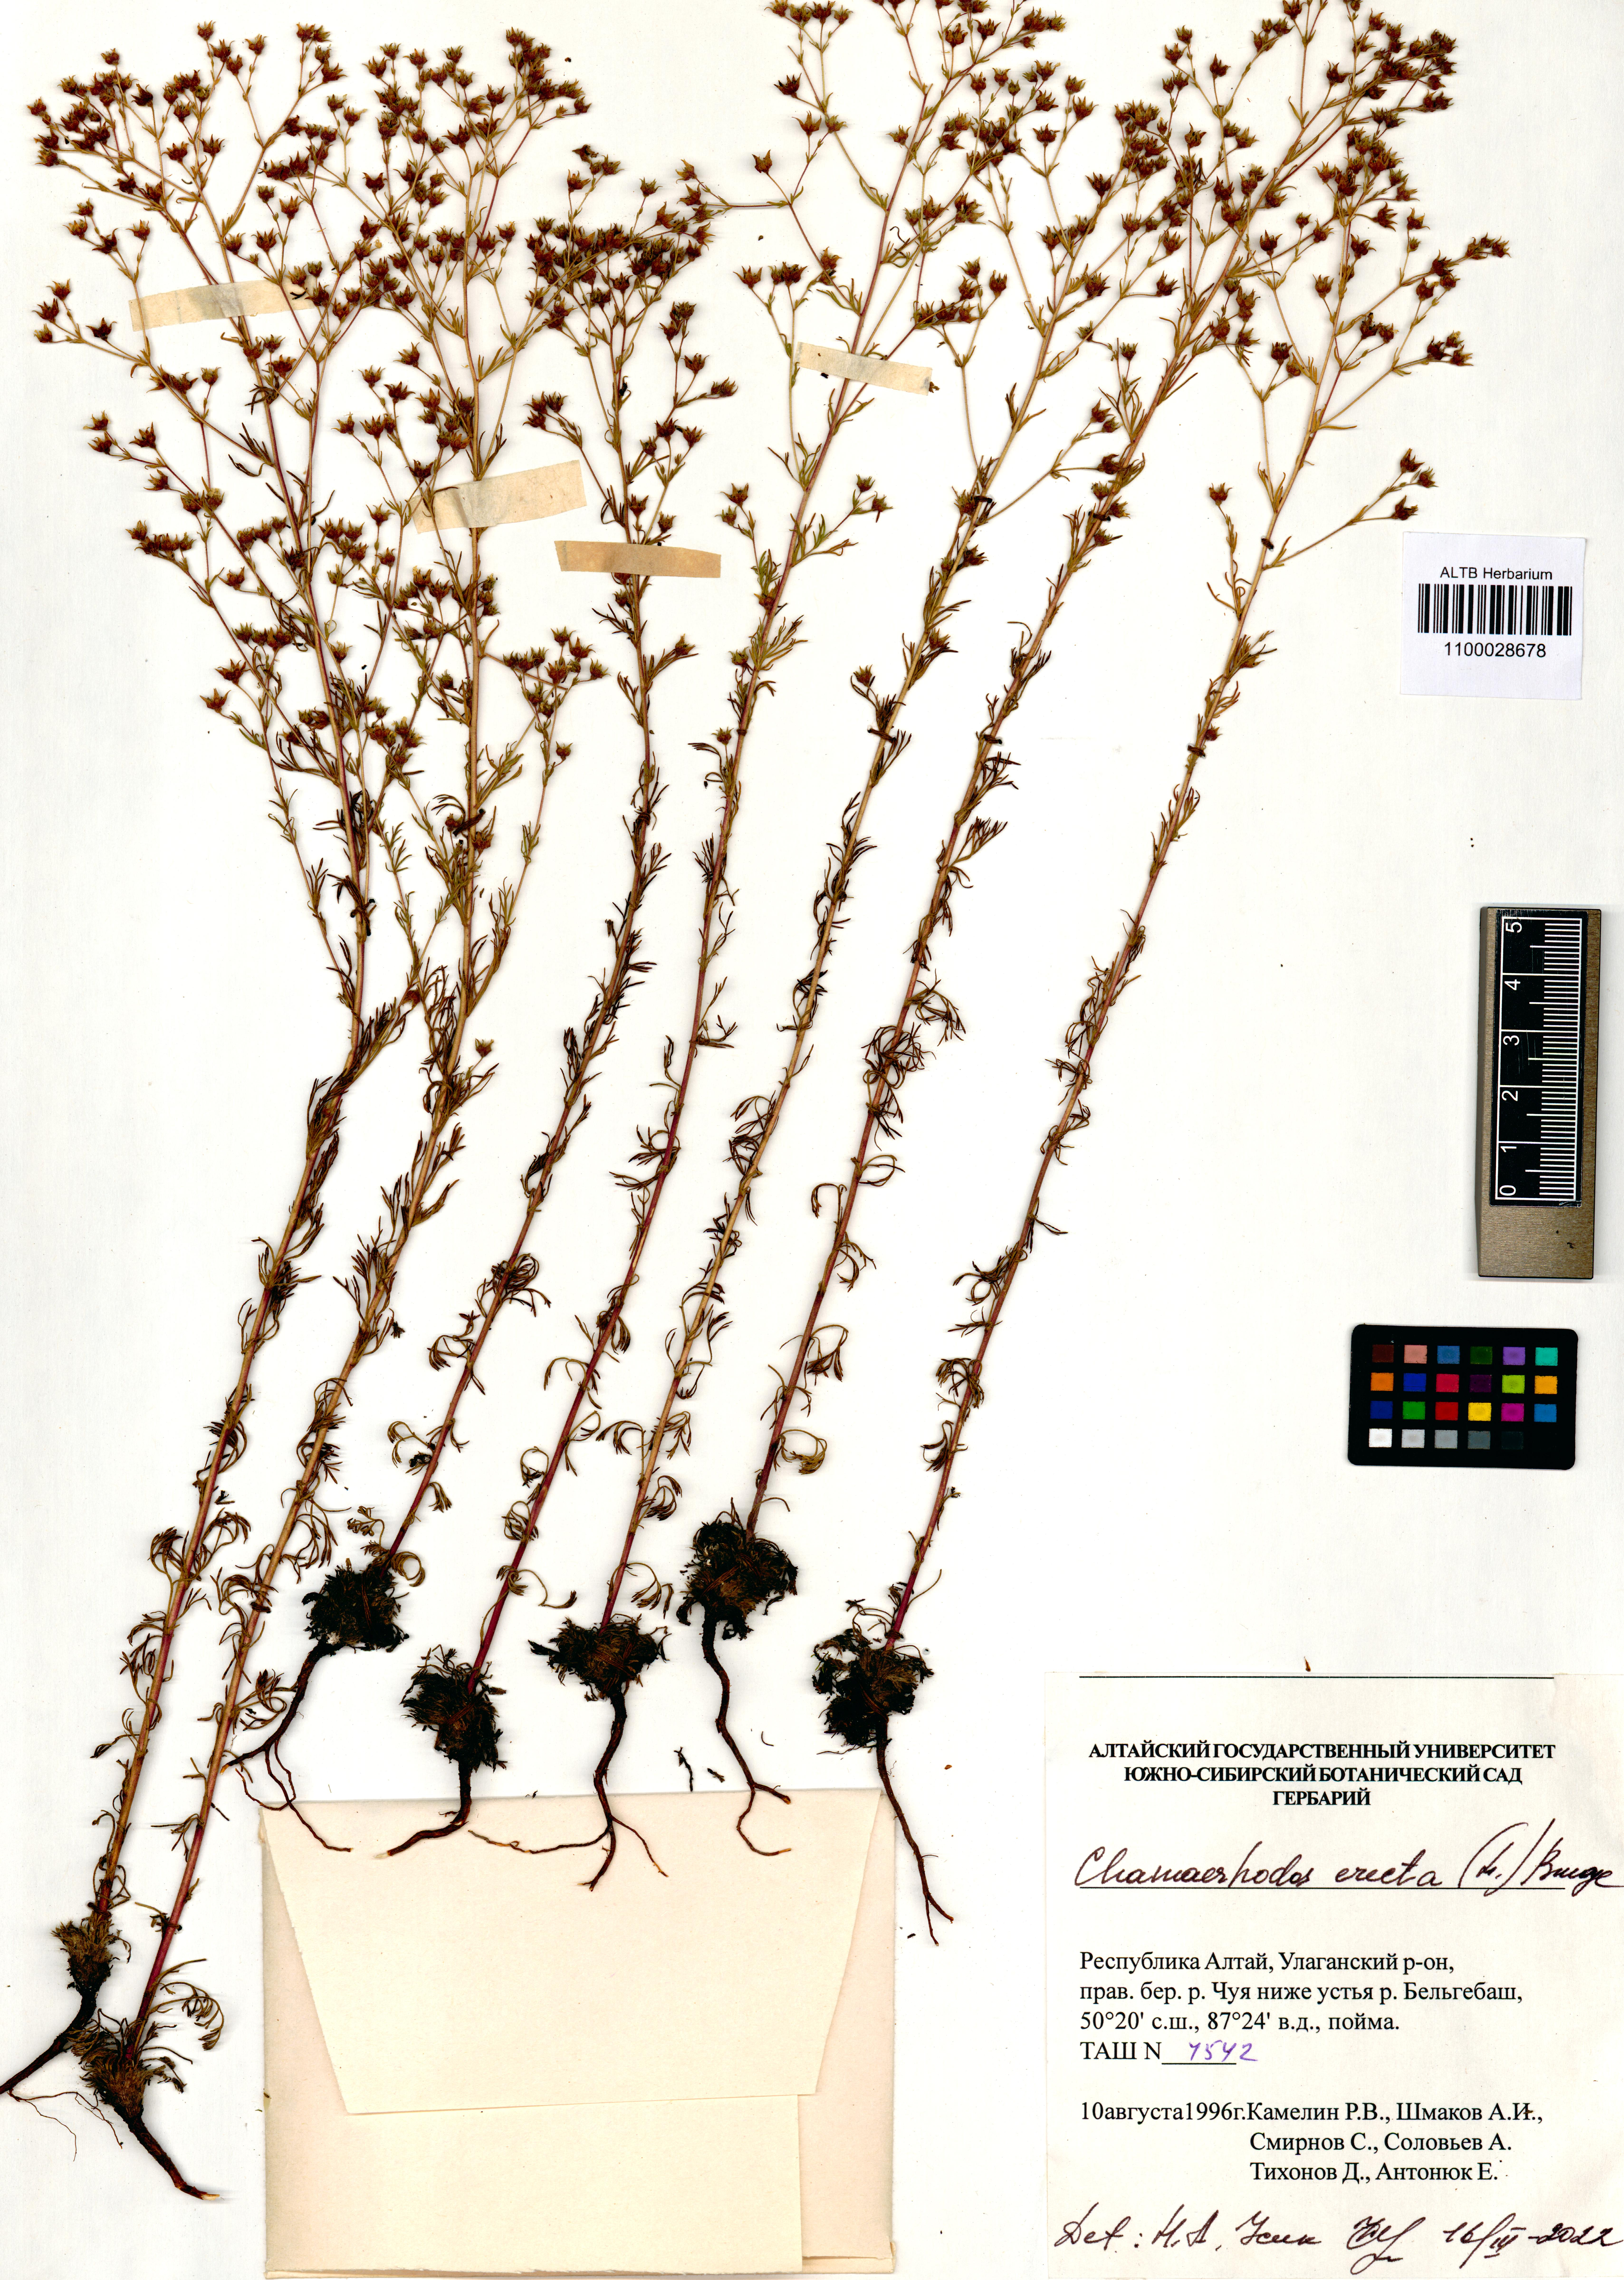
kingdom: Plantae
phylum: Tracheophyta
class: Magnoliopsida
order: Rosales
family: Rosaceae
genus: Chamaerhodos
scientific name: Chamaerhodos erecta
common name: American chamaerhodos
